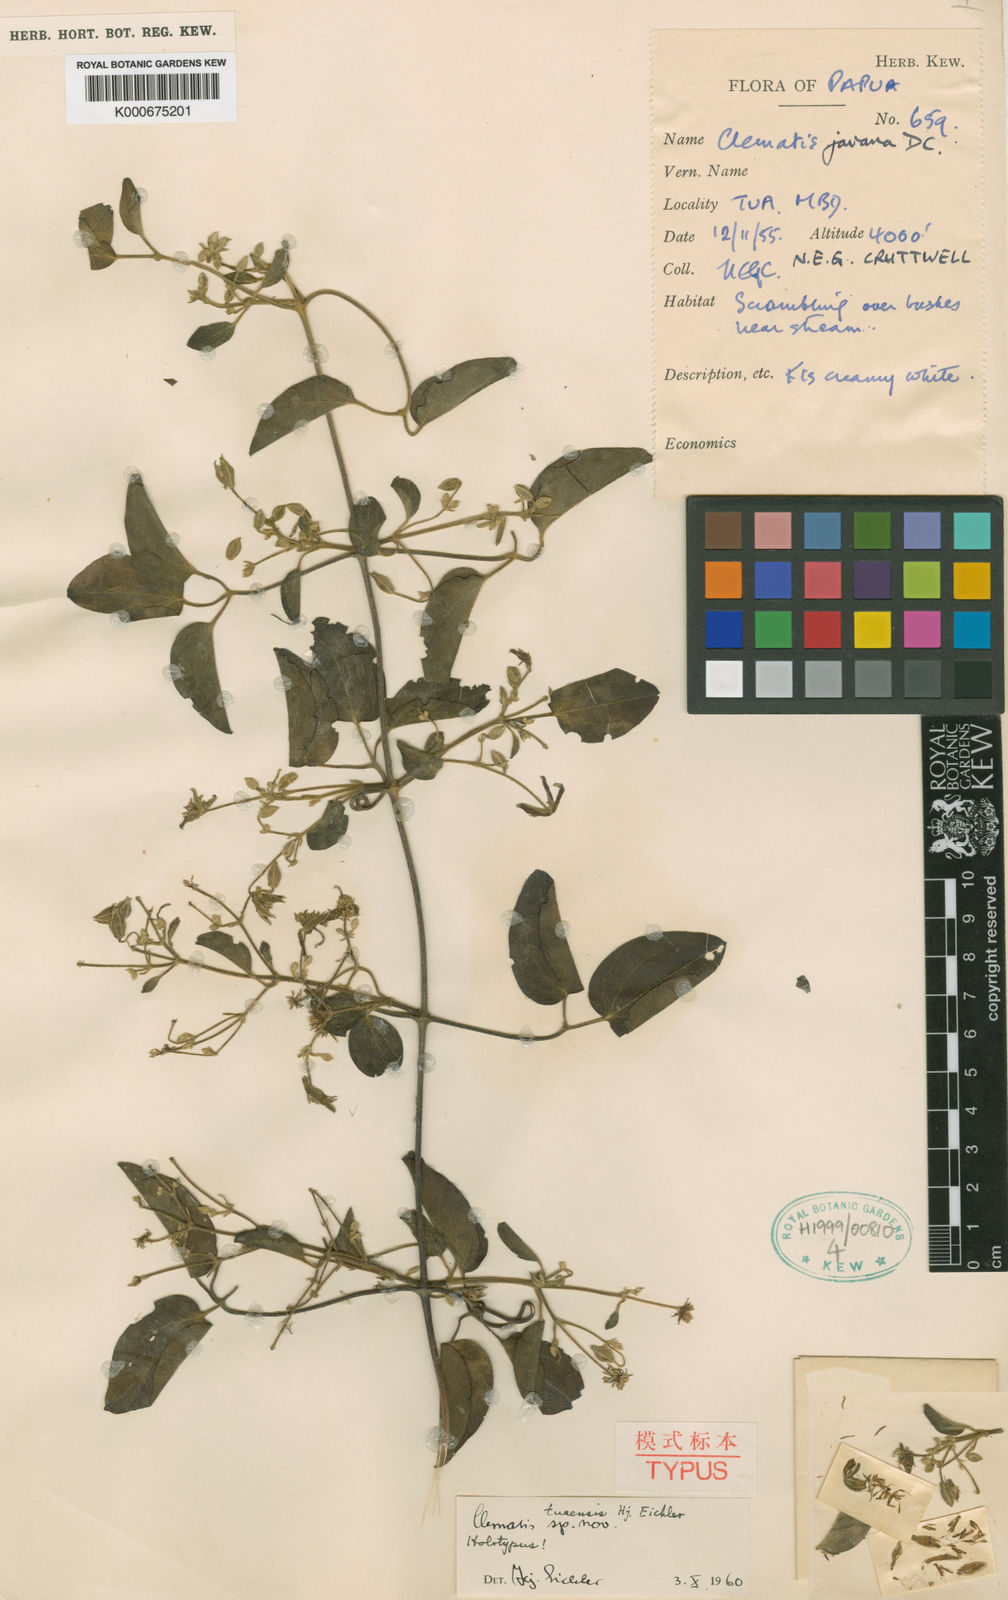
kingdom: Plantae
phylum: Tracheophyta
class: Magnoliopsida
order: Ranunculales
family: Ranunculaceae
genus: Clematis
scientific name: Clematis tuaensis
